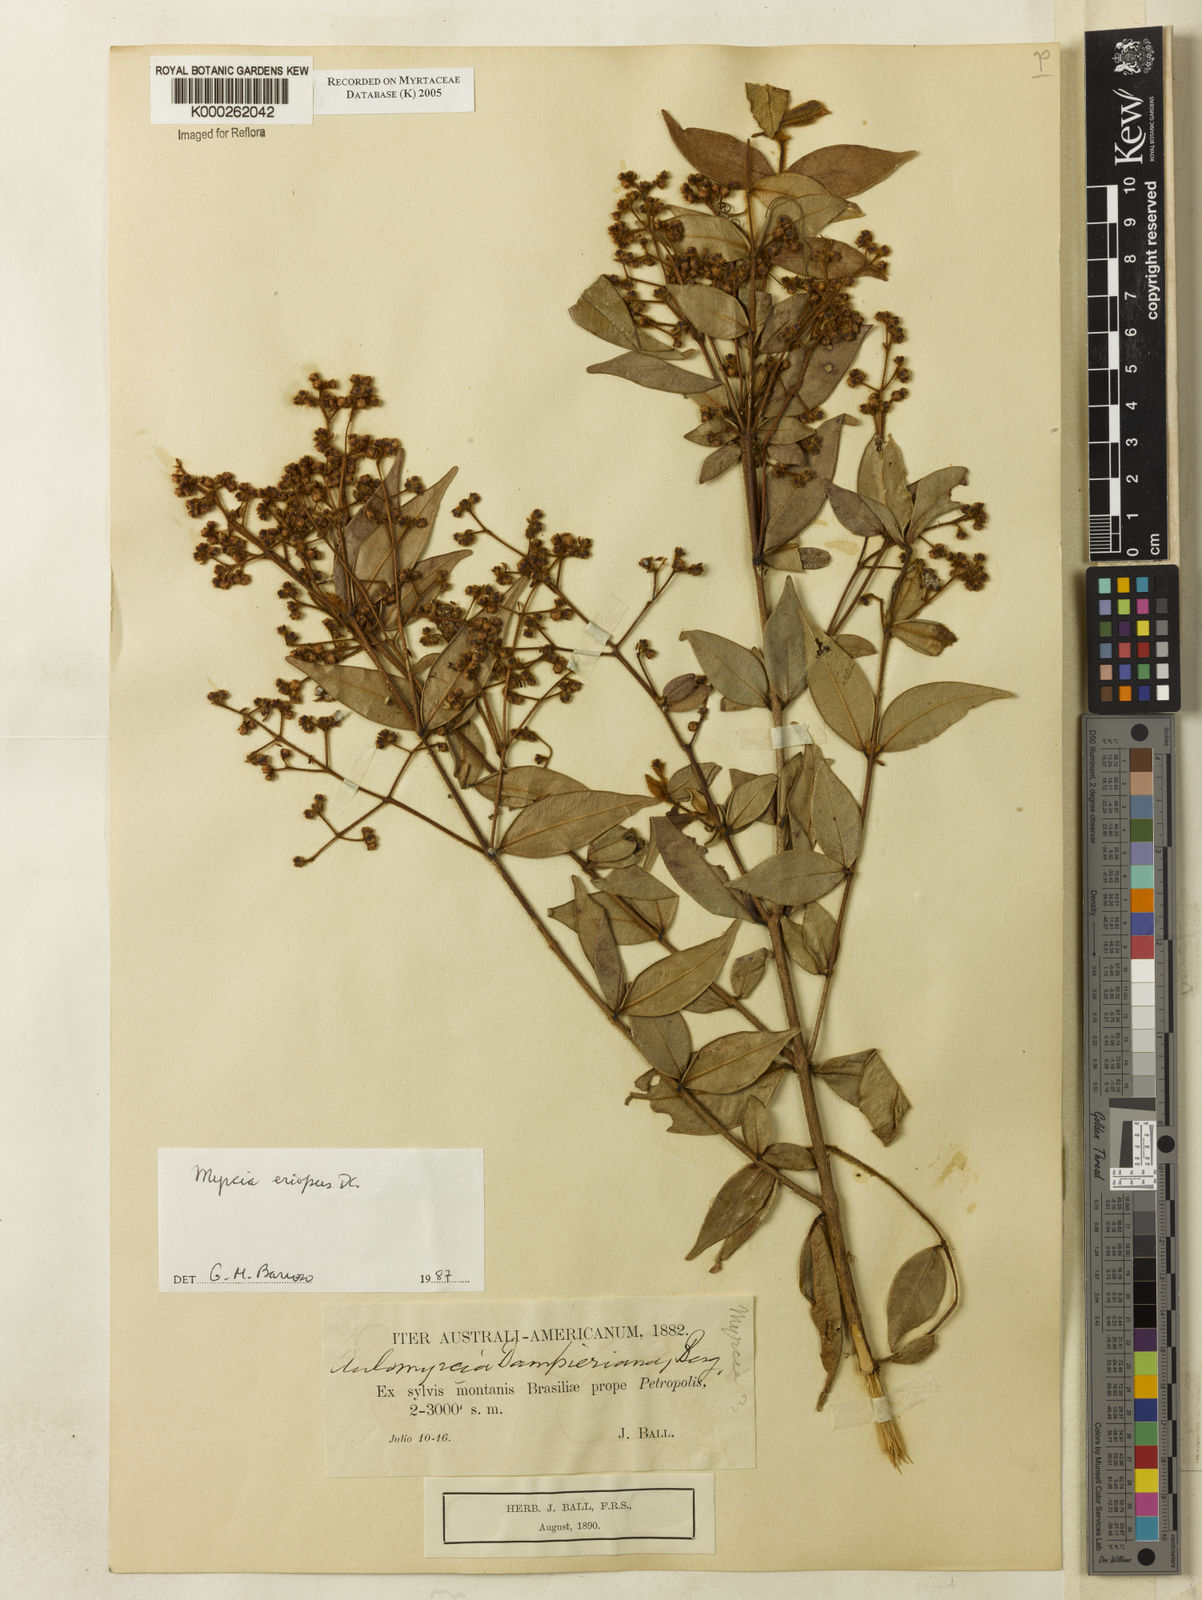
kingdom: Plantae
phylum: Tracheophyta
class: Magnoliopsida
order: Myrtales
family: Myrtaceae
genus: Myrcia
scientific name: Myrcia eriopus
